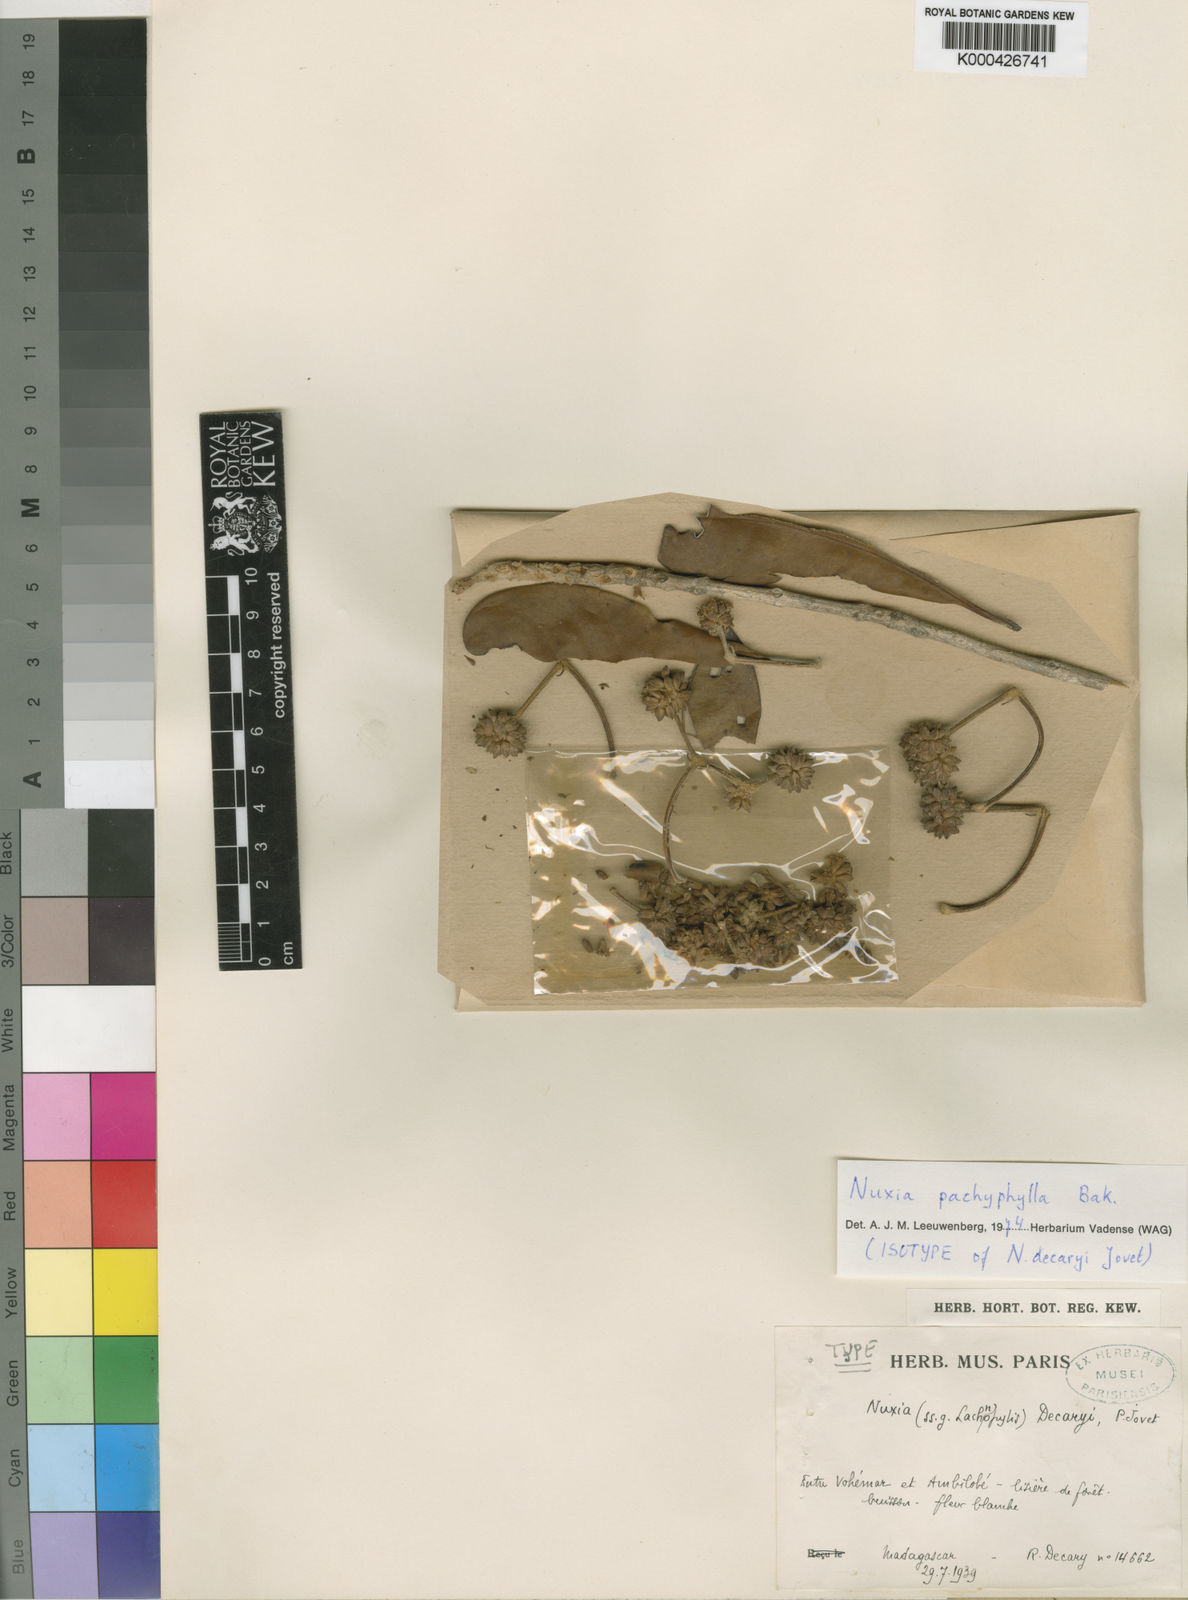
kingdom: Plantae
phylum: Tracheophyta
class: Magnoliopsida
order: Lamiales
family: Stilbaceae
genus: Nuxia
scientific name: Nuxia pachyphylla
